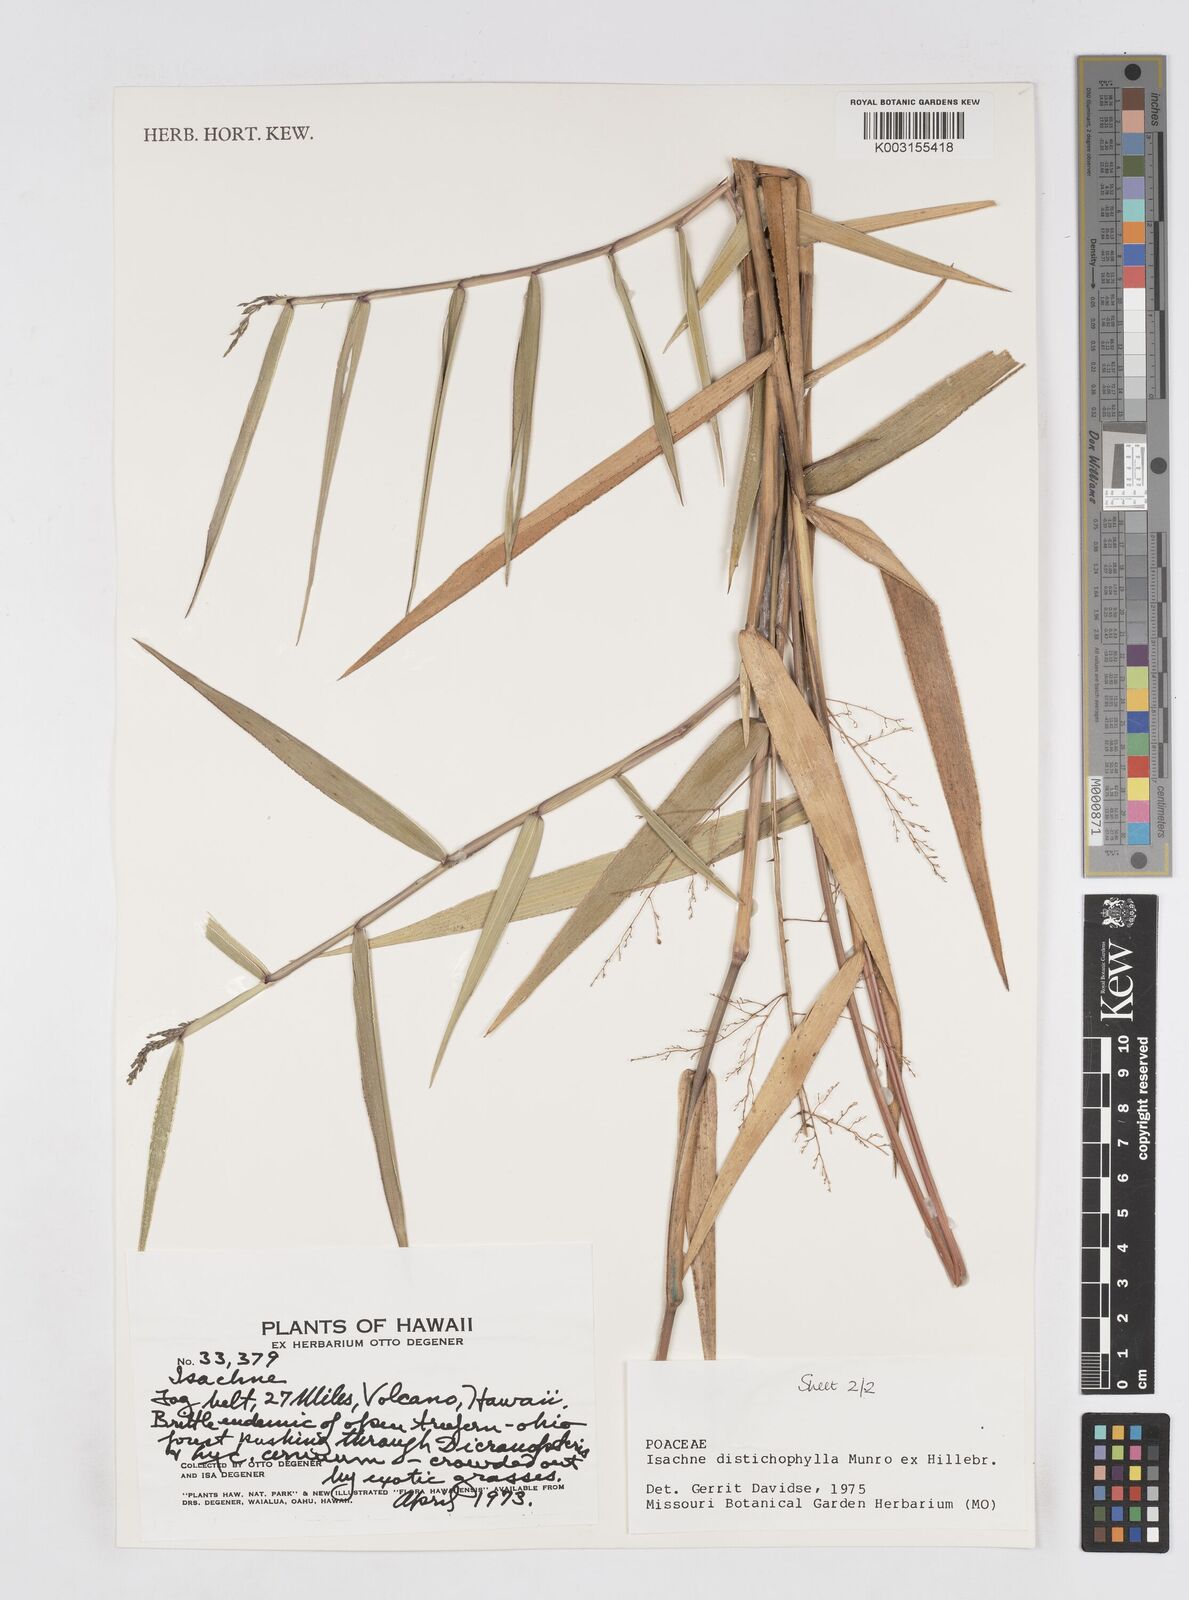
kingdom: Plantae
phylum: Tracheophyta
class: Liliopsida
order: Poales
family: Poaceae
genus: Isachne
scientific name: Isachne distichophylla
